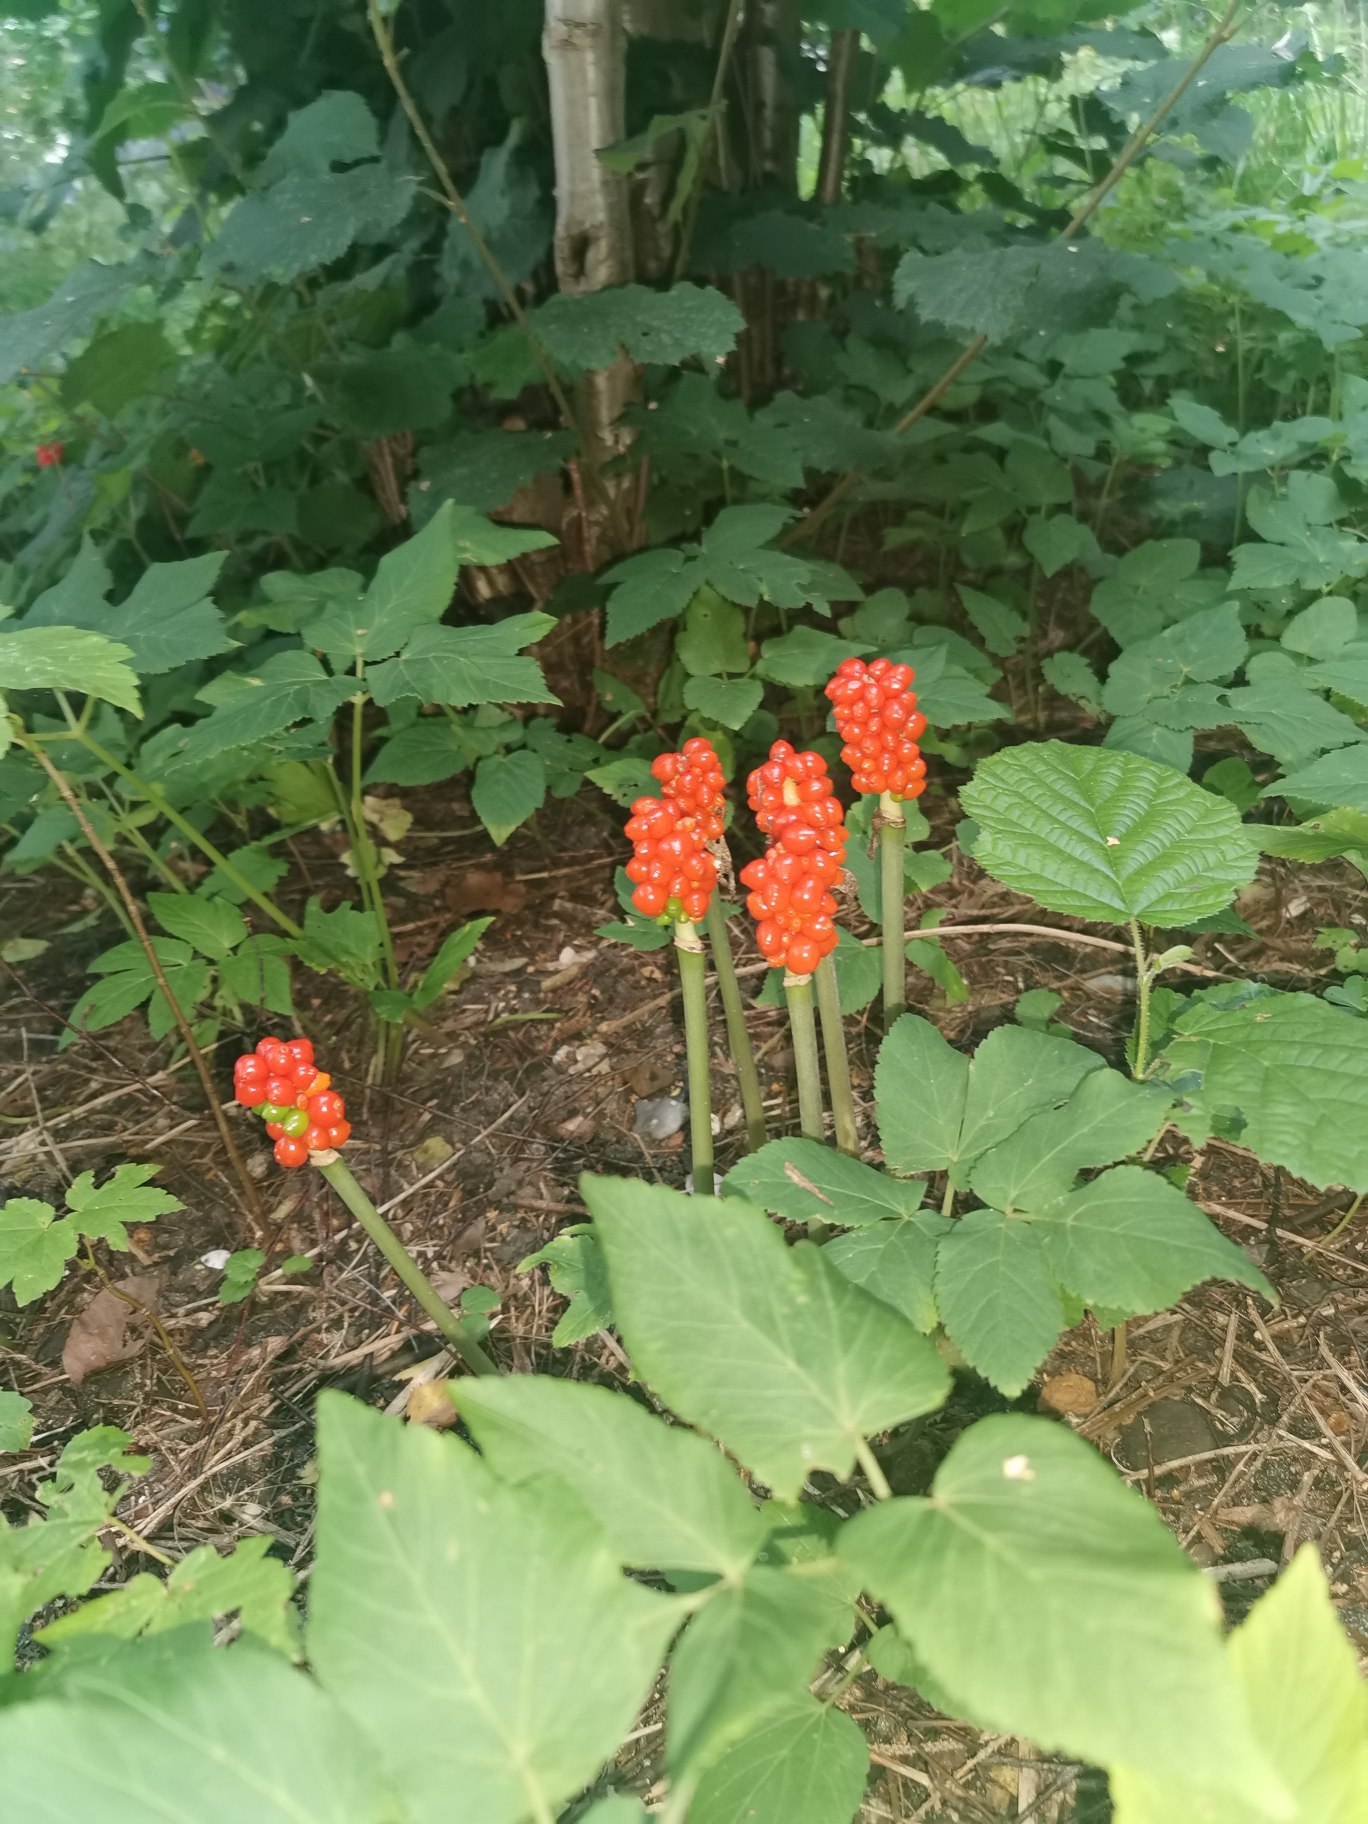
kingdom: Plantae
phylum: Tracheophyta
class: Liliopsida
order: Alismatales
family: Araceae
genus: Arum
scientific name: Arum
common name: Arumslægten
